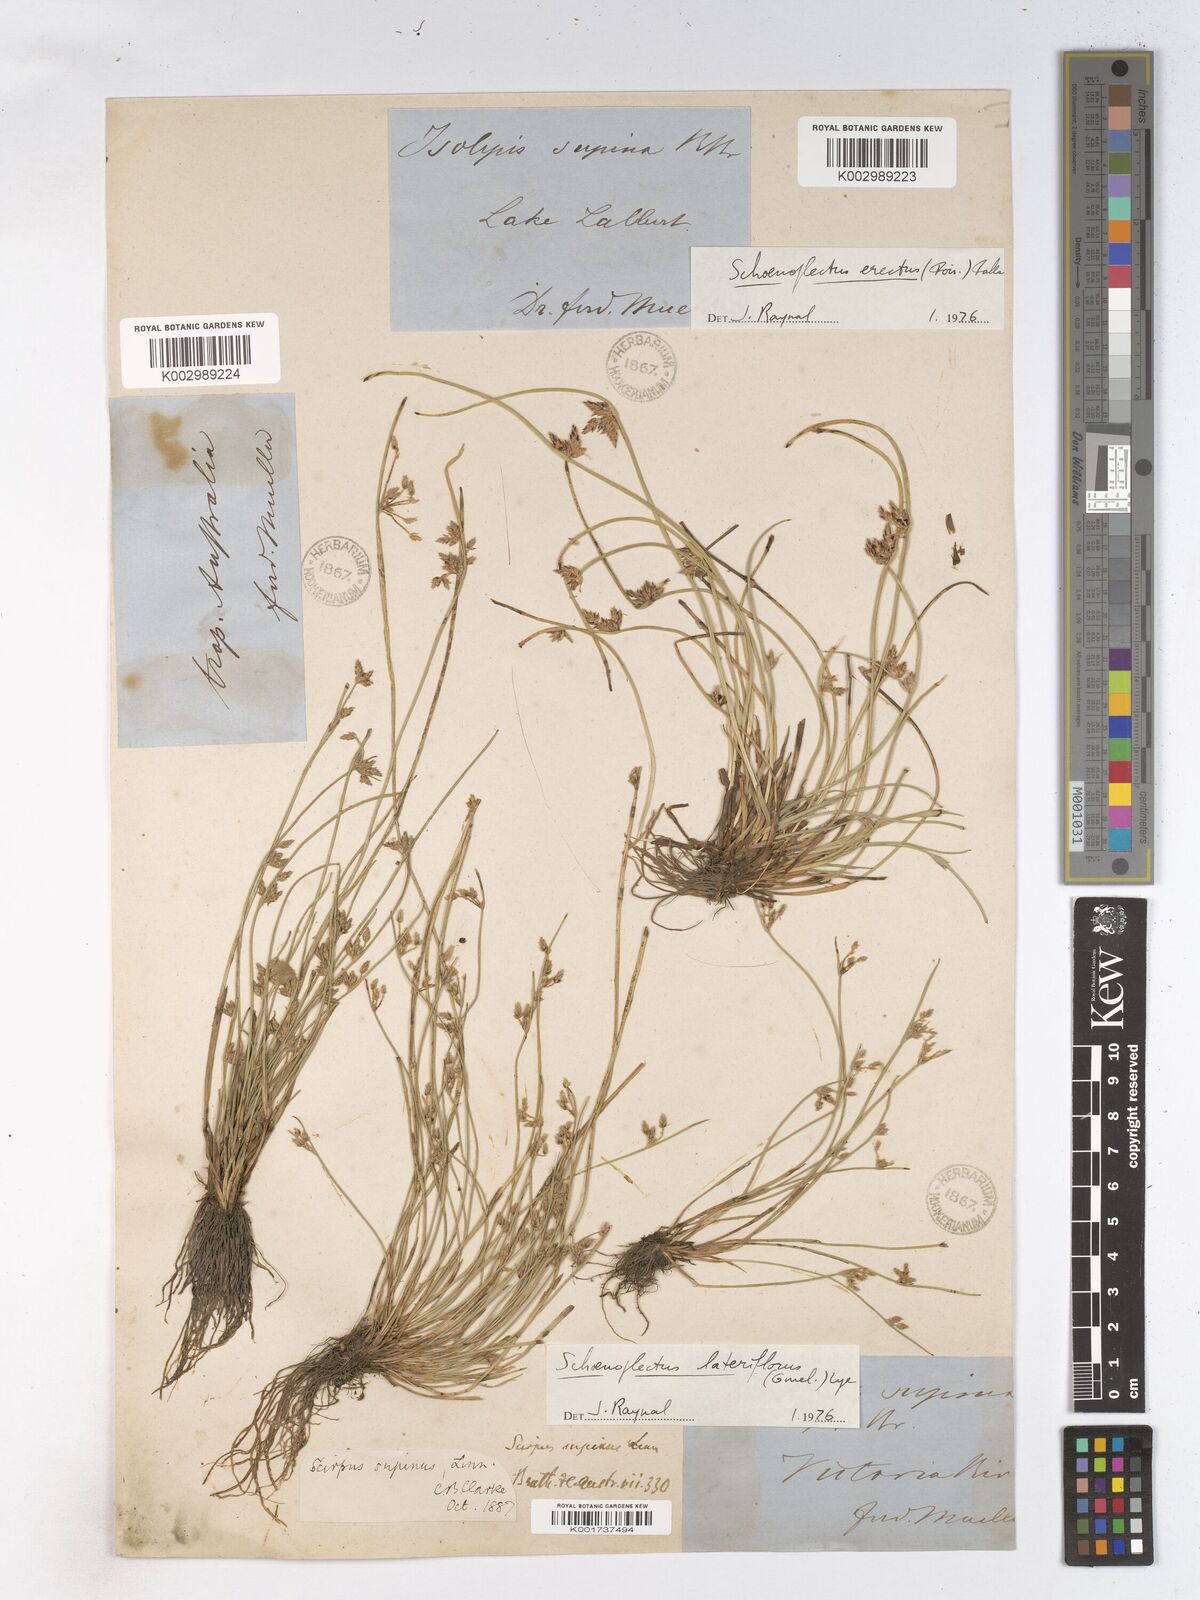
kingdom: Plantae
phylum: Tracheophyta
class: Liliopsida
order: Poales
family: Cyperaceae
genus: Schoenoplectiella
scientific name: Schoenoplectiella supina
